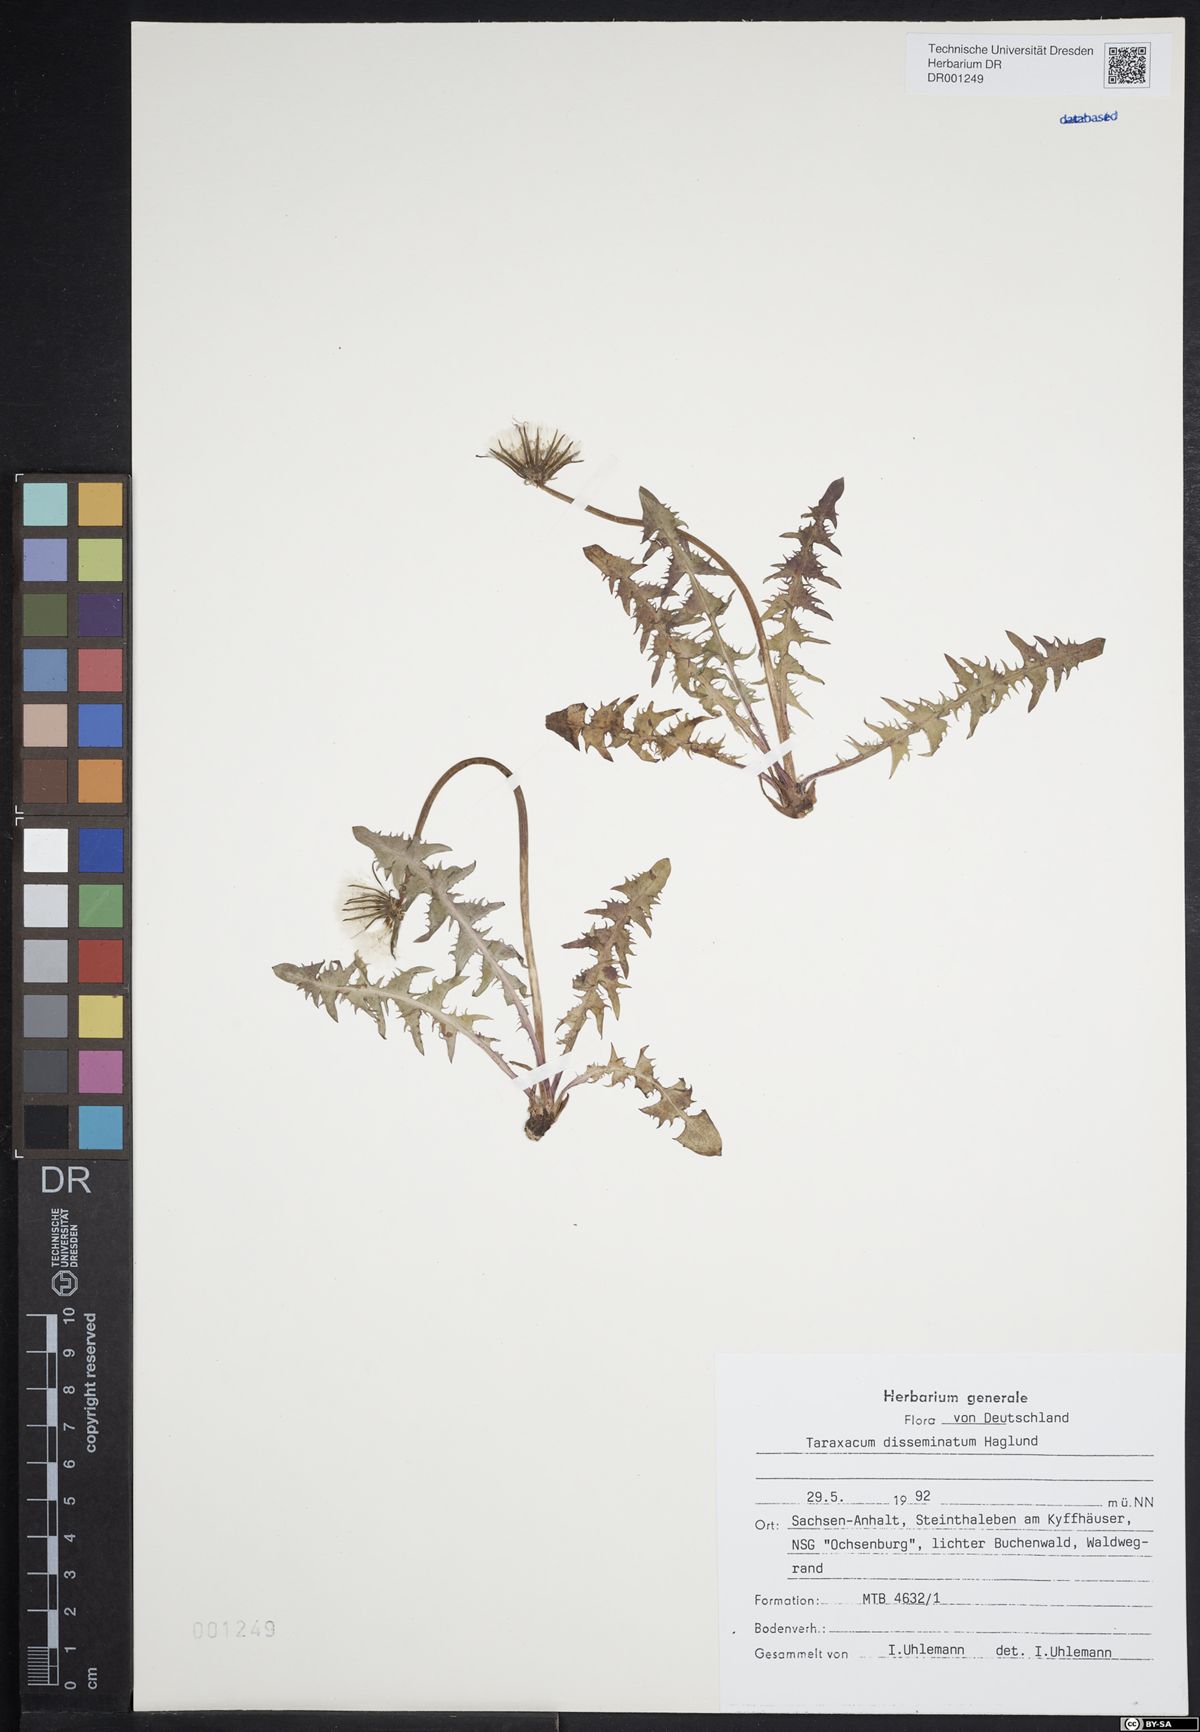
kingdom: Plantae
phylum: Tracheophyta
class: Magnoliopsida
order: Asterales
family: Asteraceae
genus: Taraxacum
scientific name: Taraxacum disseminatum
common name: Golden-fruited dandelion
